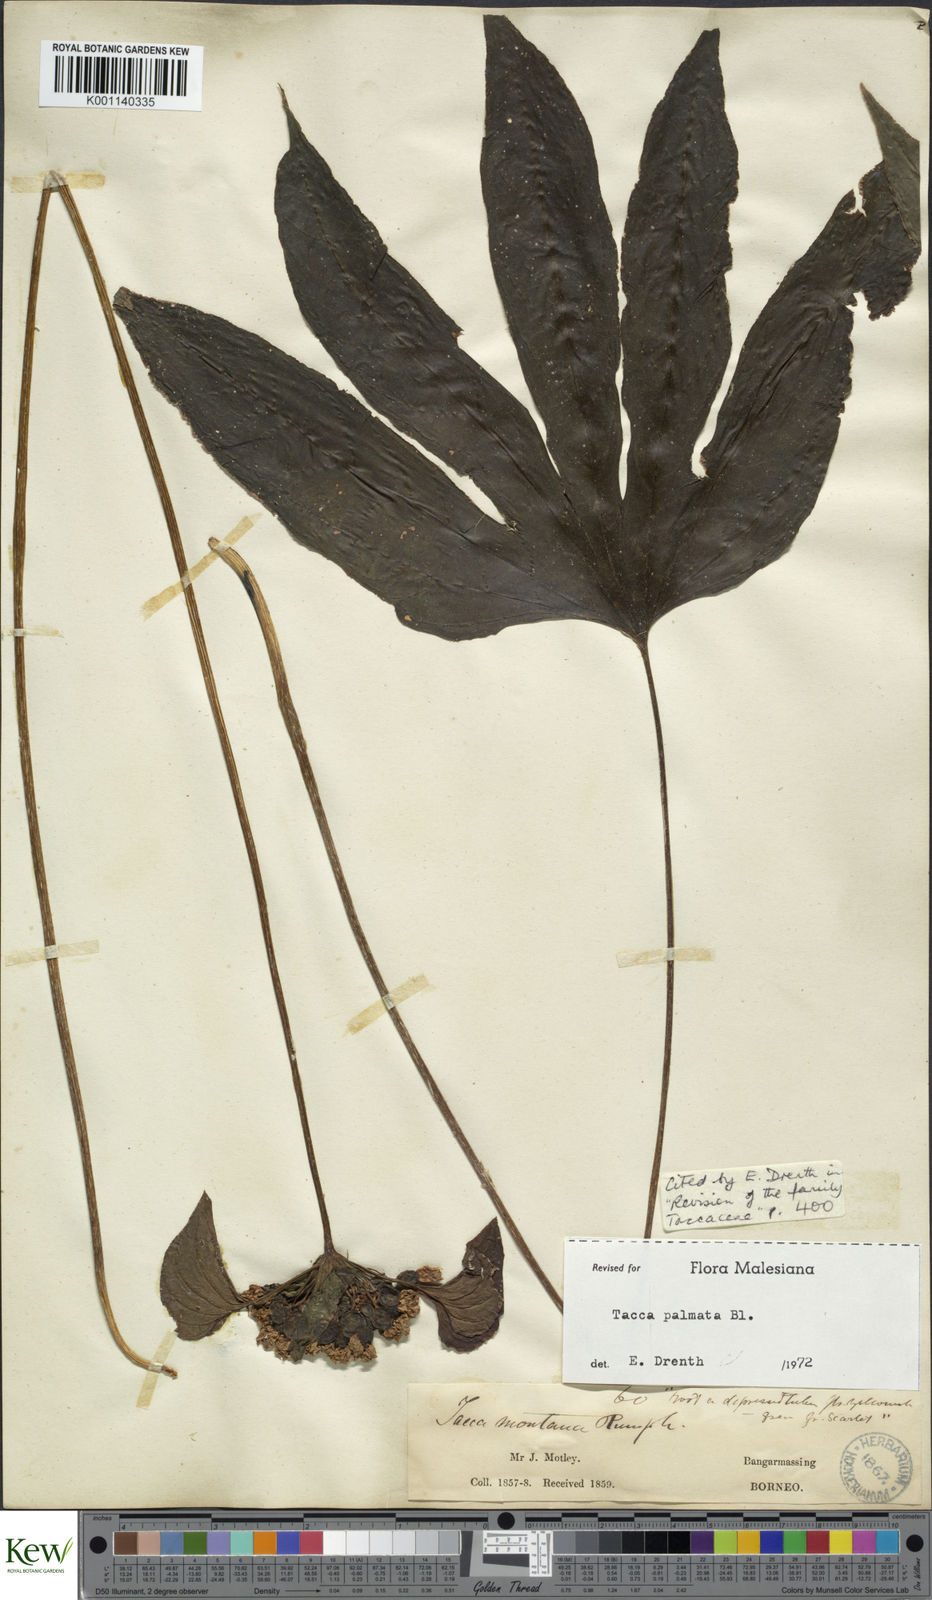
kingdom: Plantae
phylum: Tracheophyta
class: Liliopsida
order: Dioscoreales
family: Dioscoreaceae
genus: Tacca
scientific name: Tacca palmata
